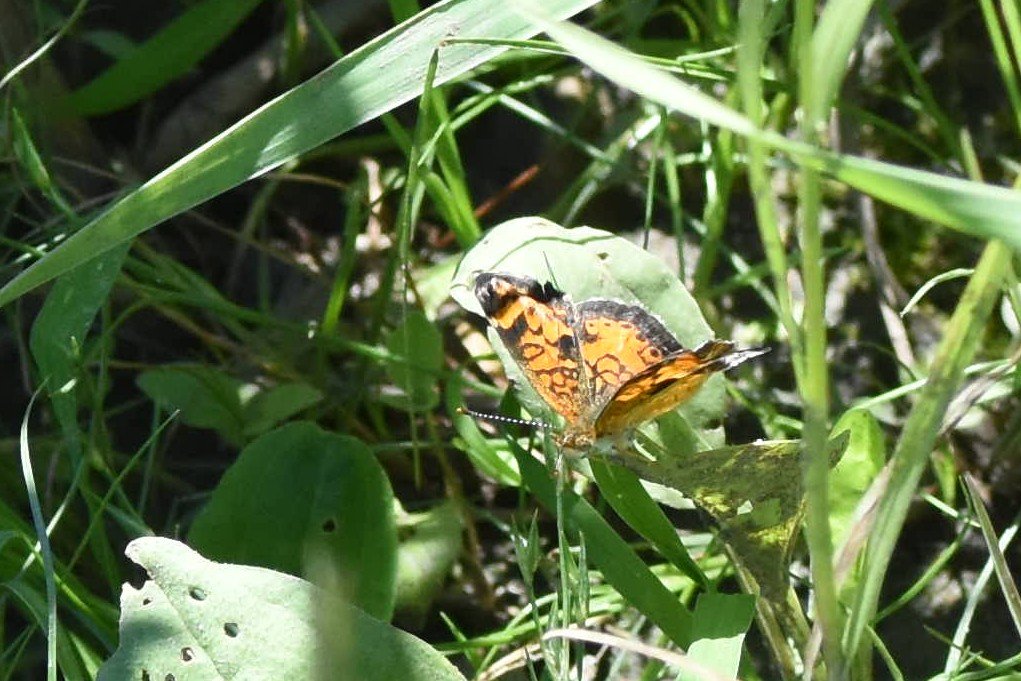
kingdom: Animalia
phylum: Arthropoda
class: Insecta
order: Lepidoptera
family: Nymphalidae
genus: Phyciodes
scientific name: Phyciodes tharos
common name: Northern Crescent
